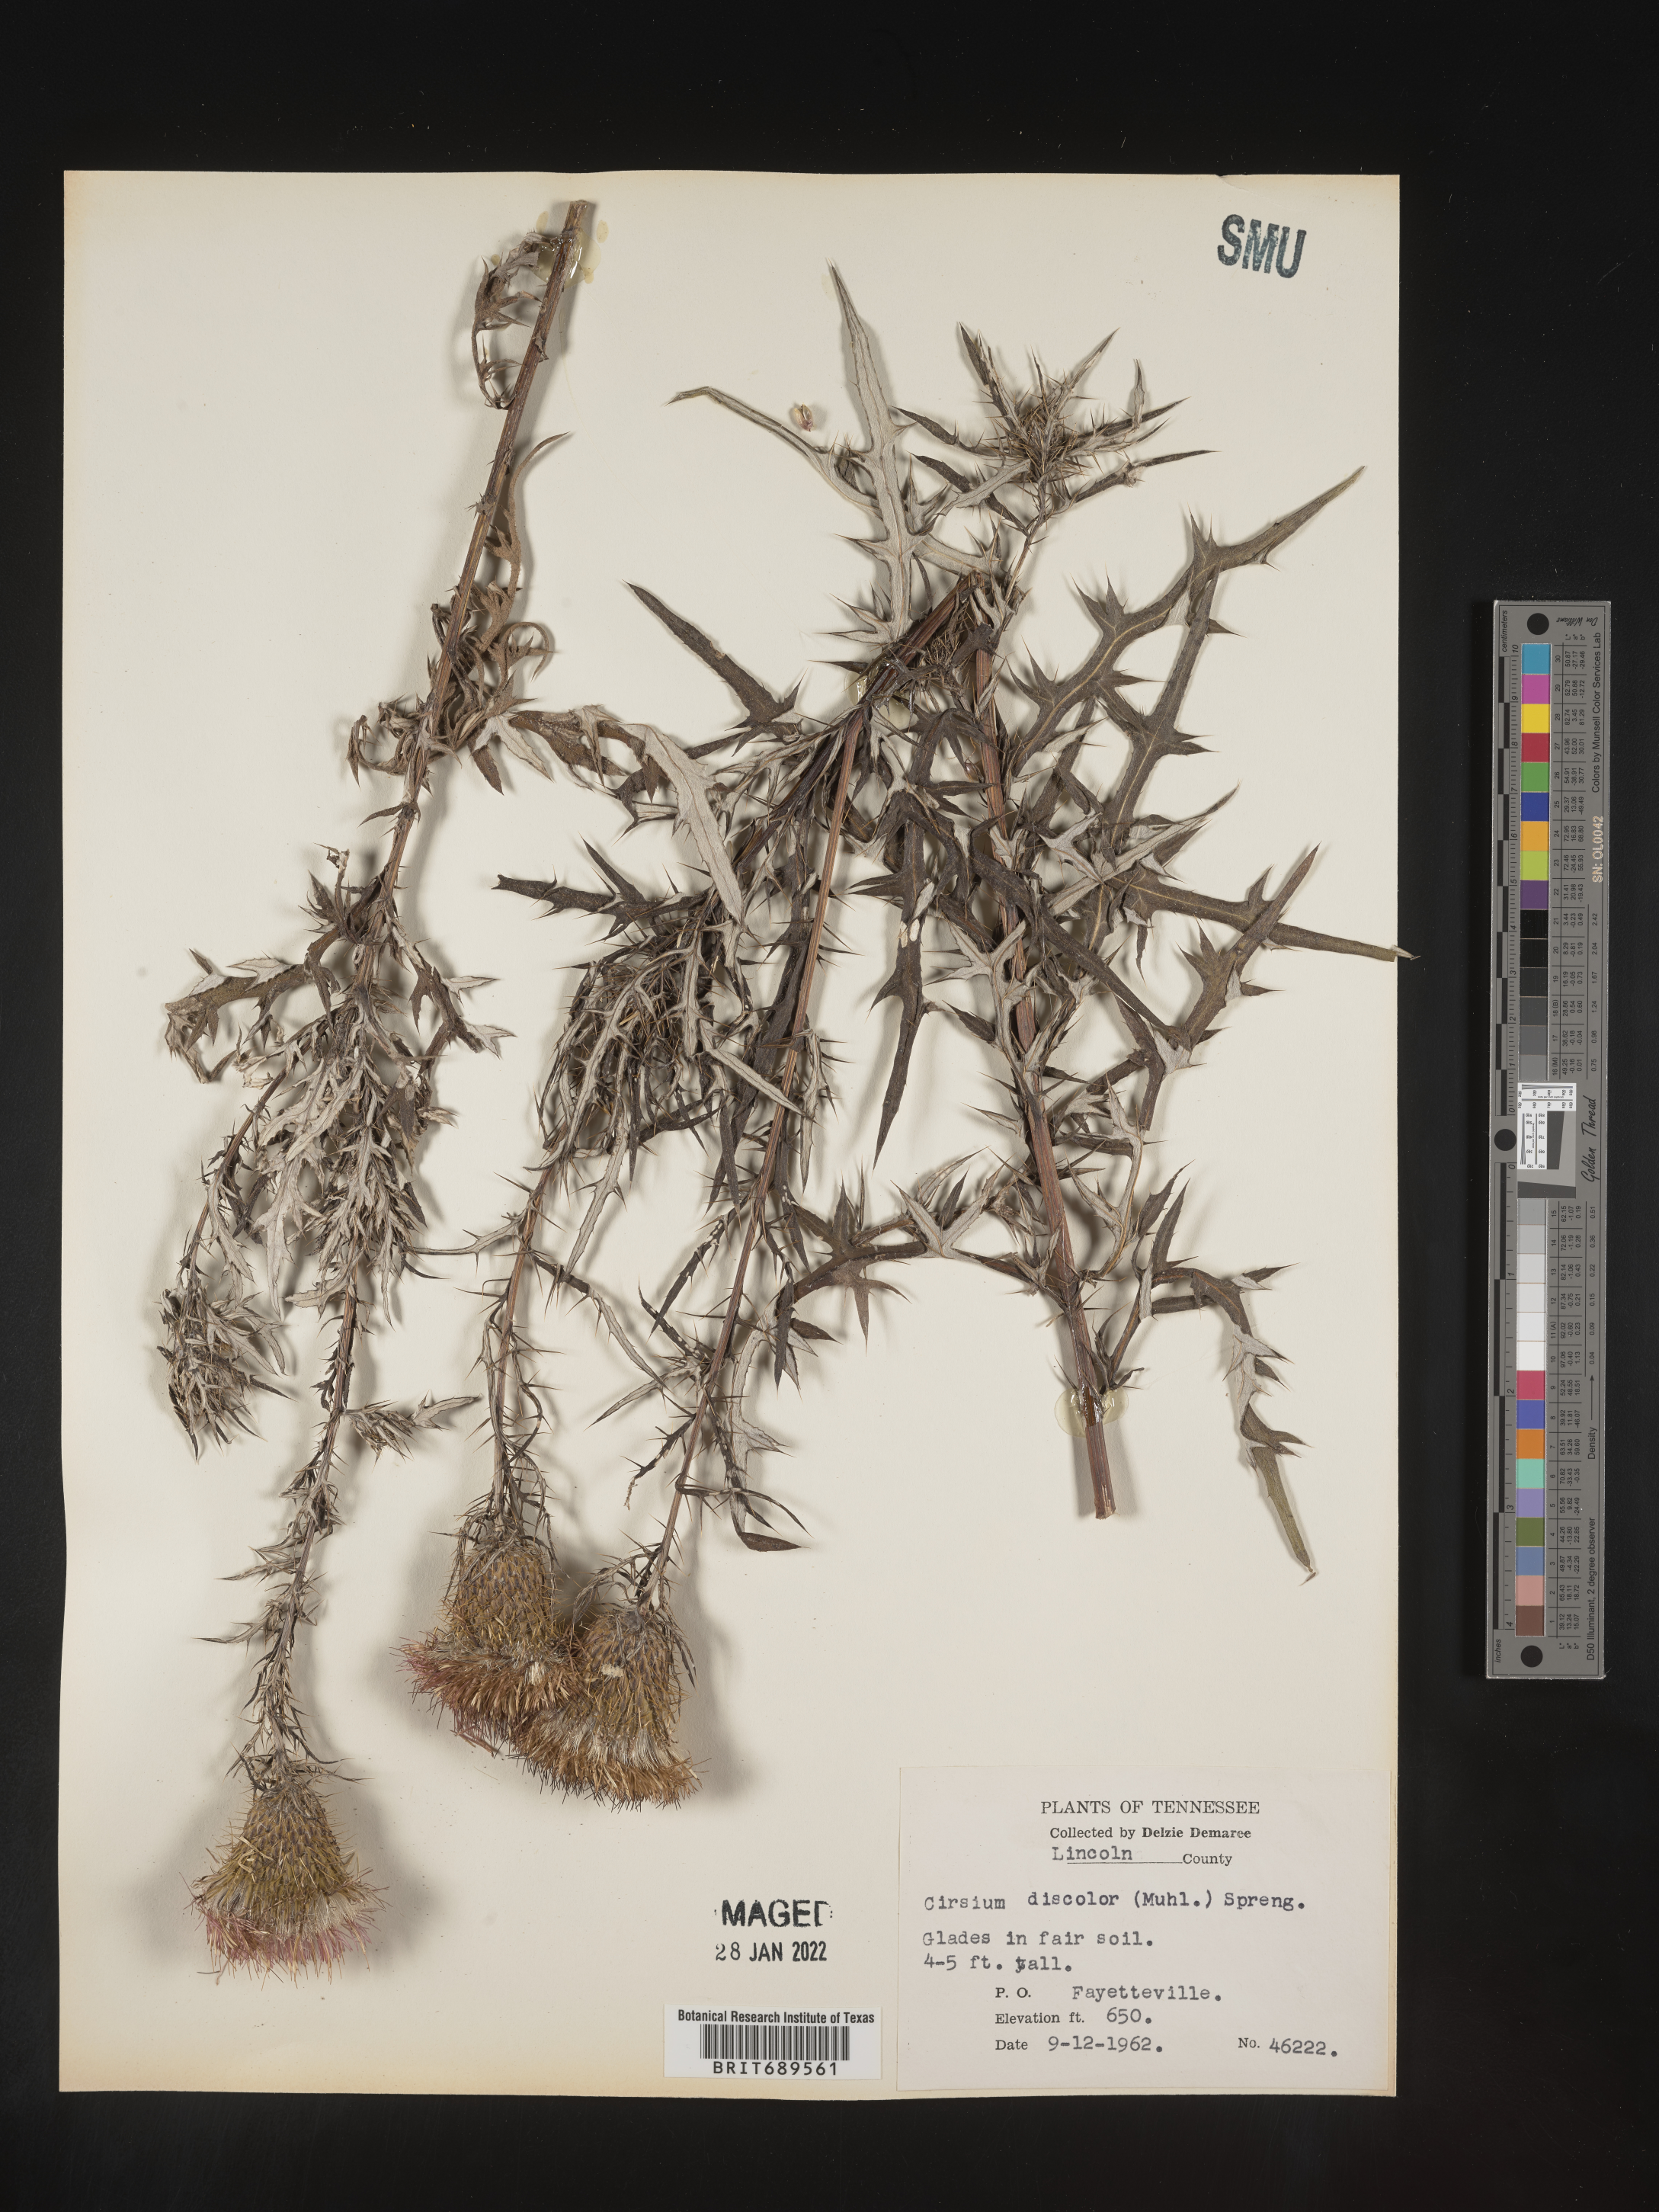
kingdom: Plantae
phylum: Tracheophyta
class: Magnoliopsida
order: Asterales
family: Asteraceae
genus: Cirsium
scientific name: Cirsium discolor
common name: Field thistle
